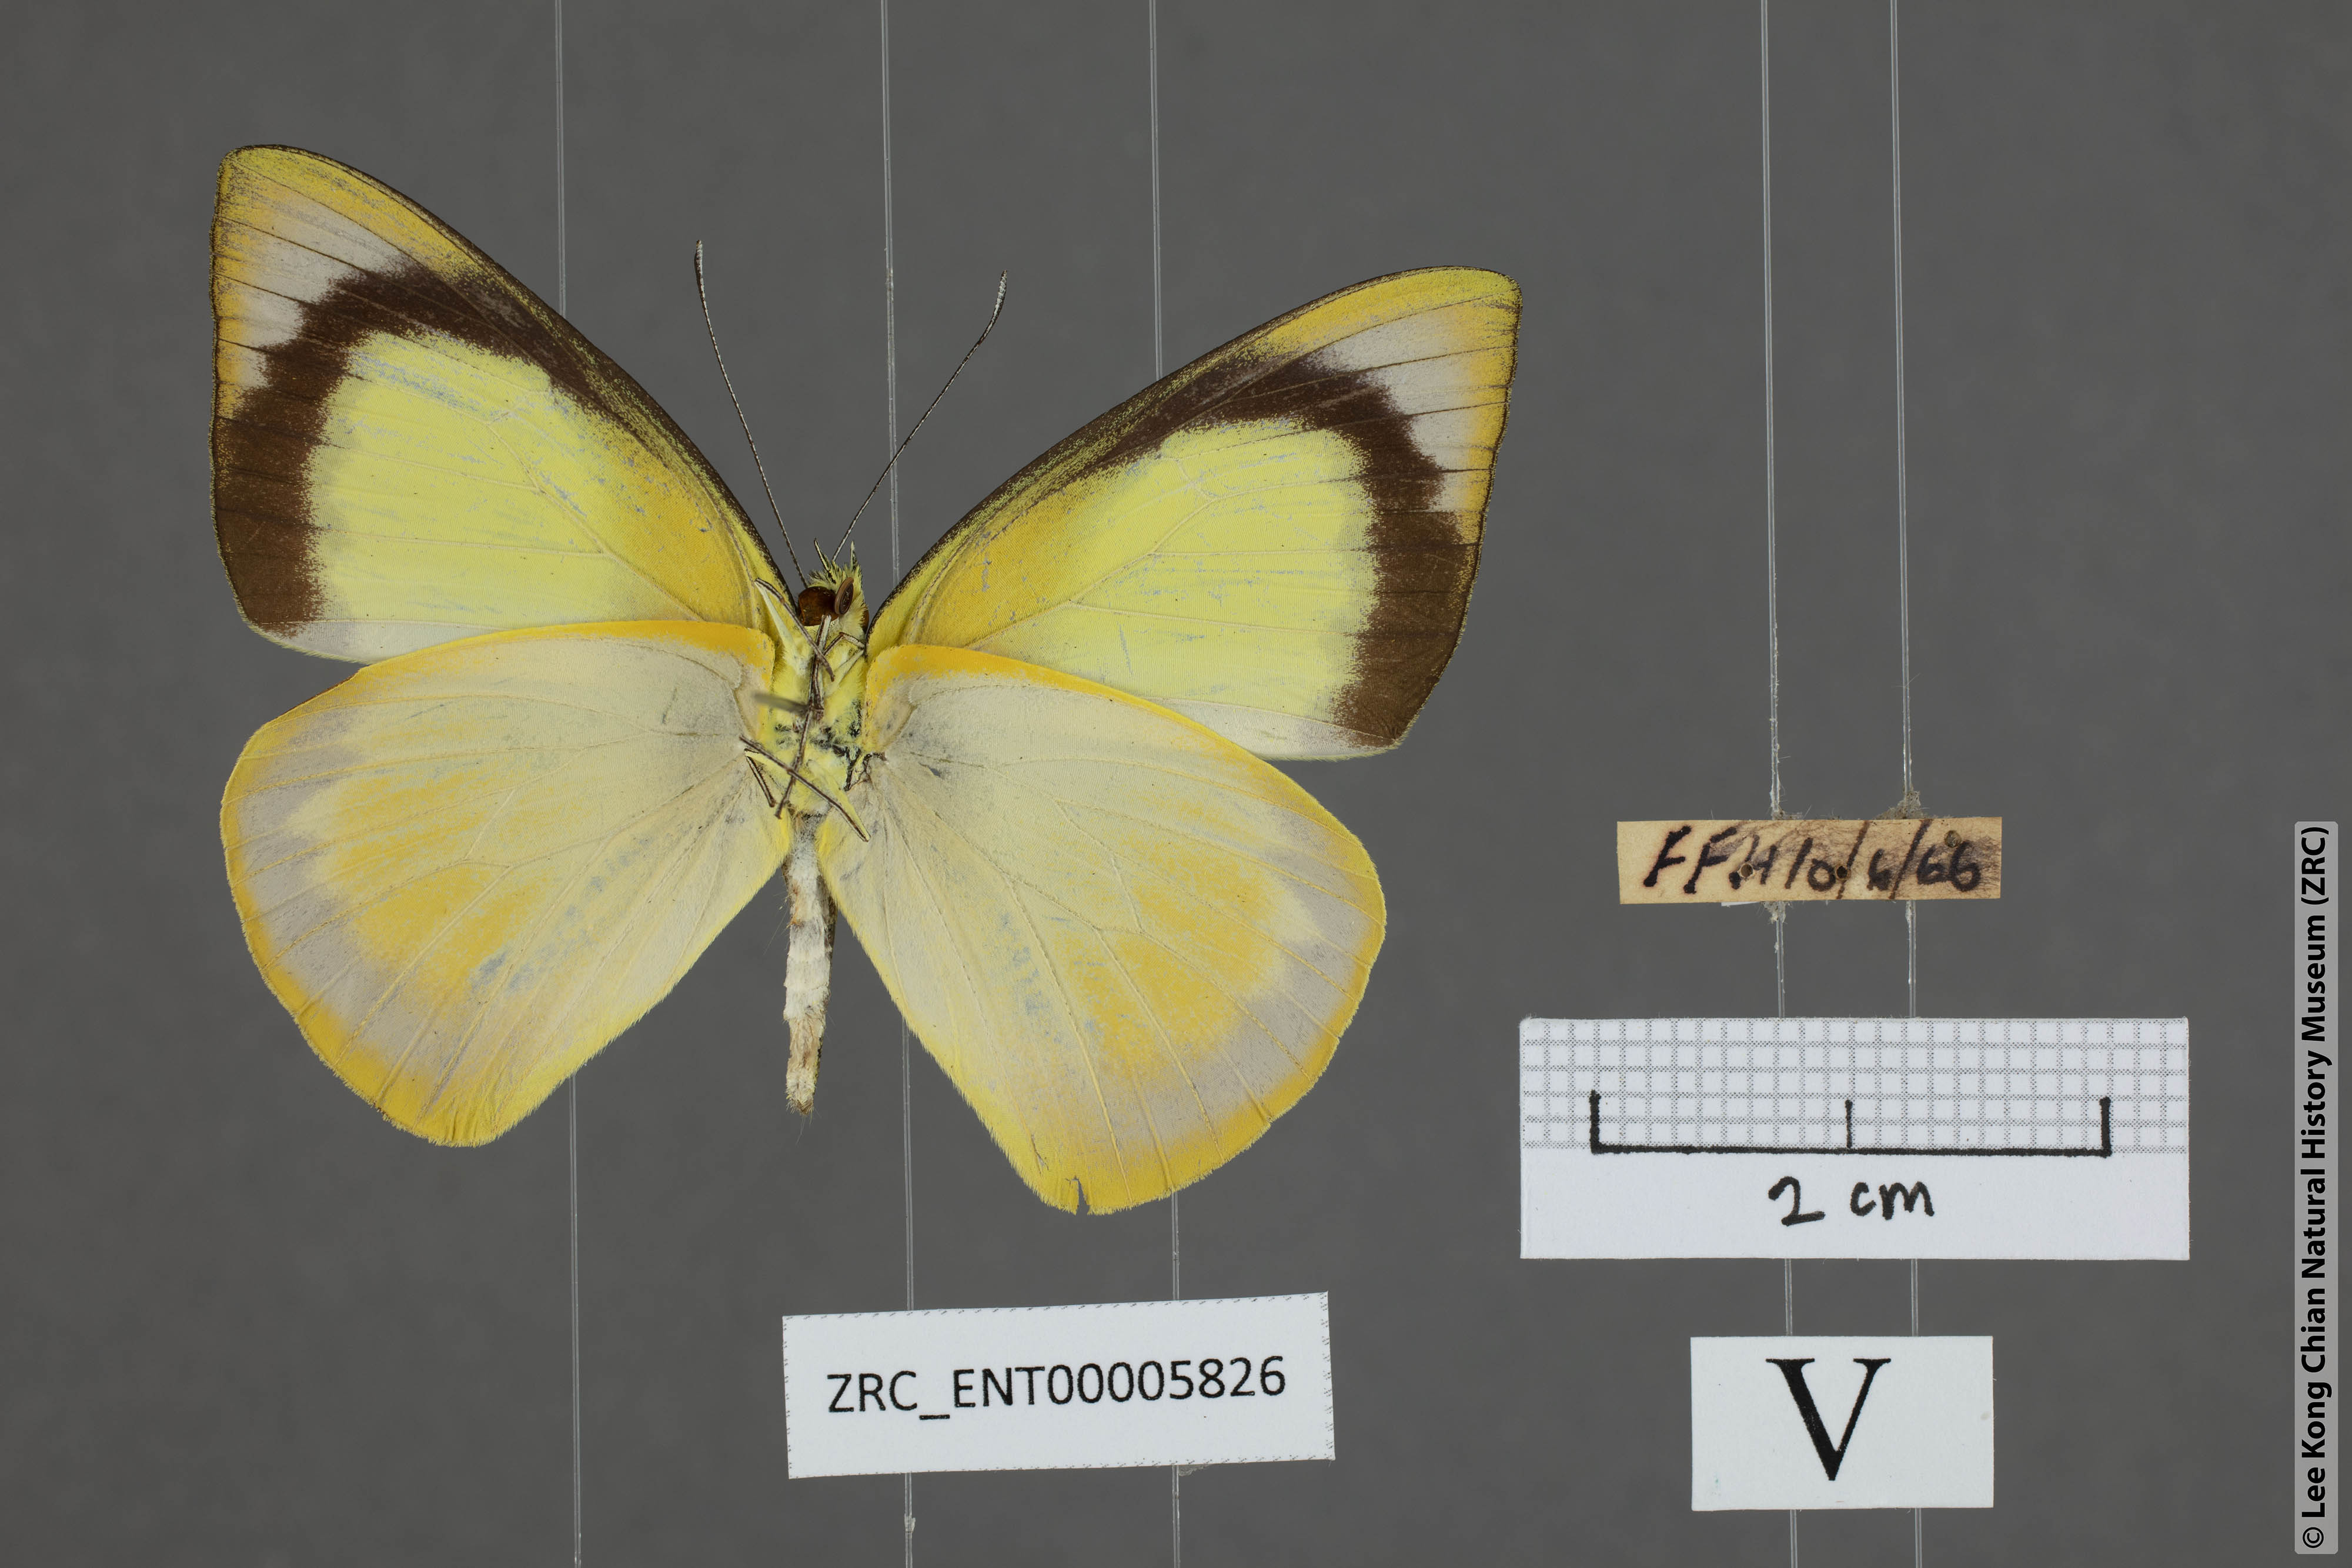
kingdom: Animalia
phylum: Arthropoda
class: Insecta
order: Lepidoptera
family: Pieridae
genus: Saletara
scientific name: Saletara liberia
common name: Pointed albatross
